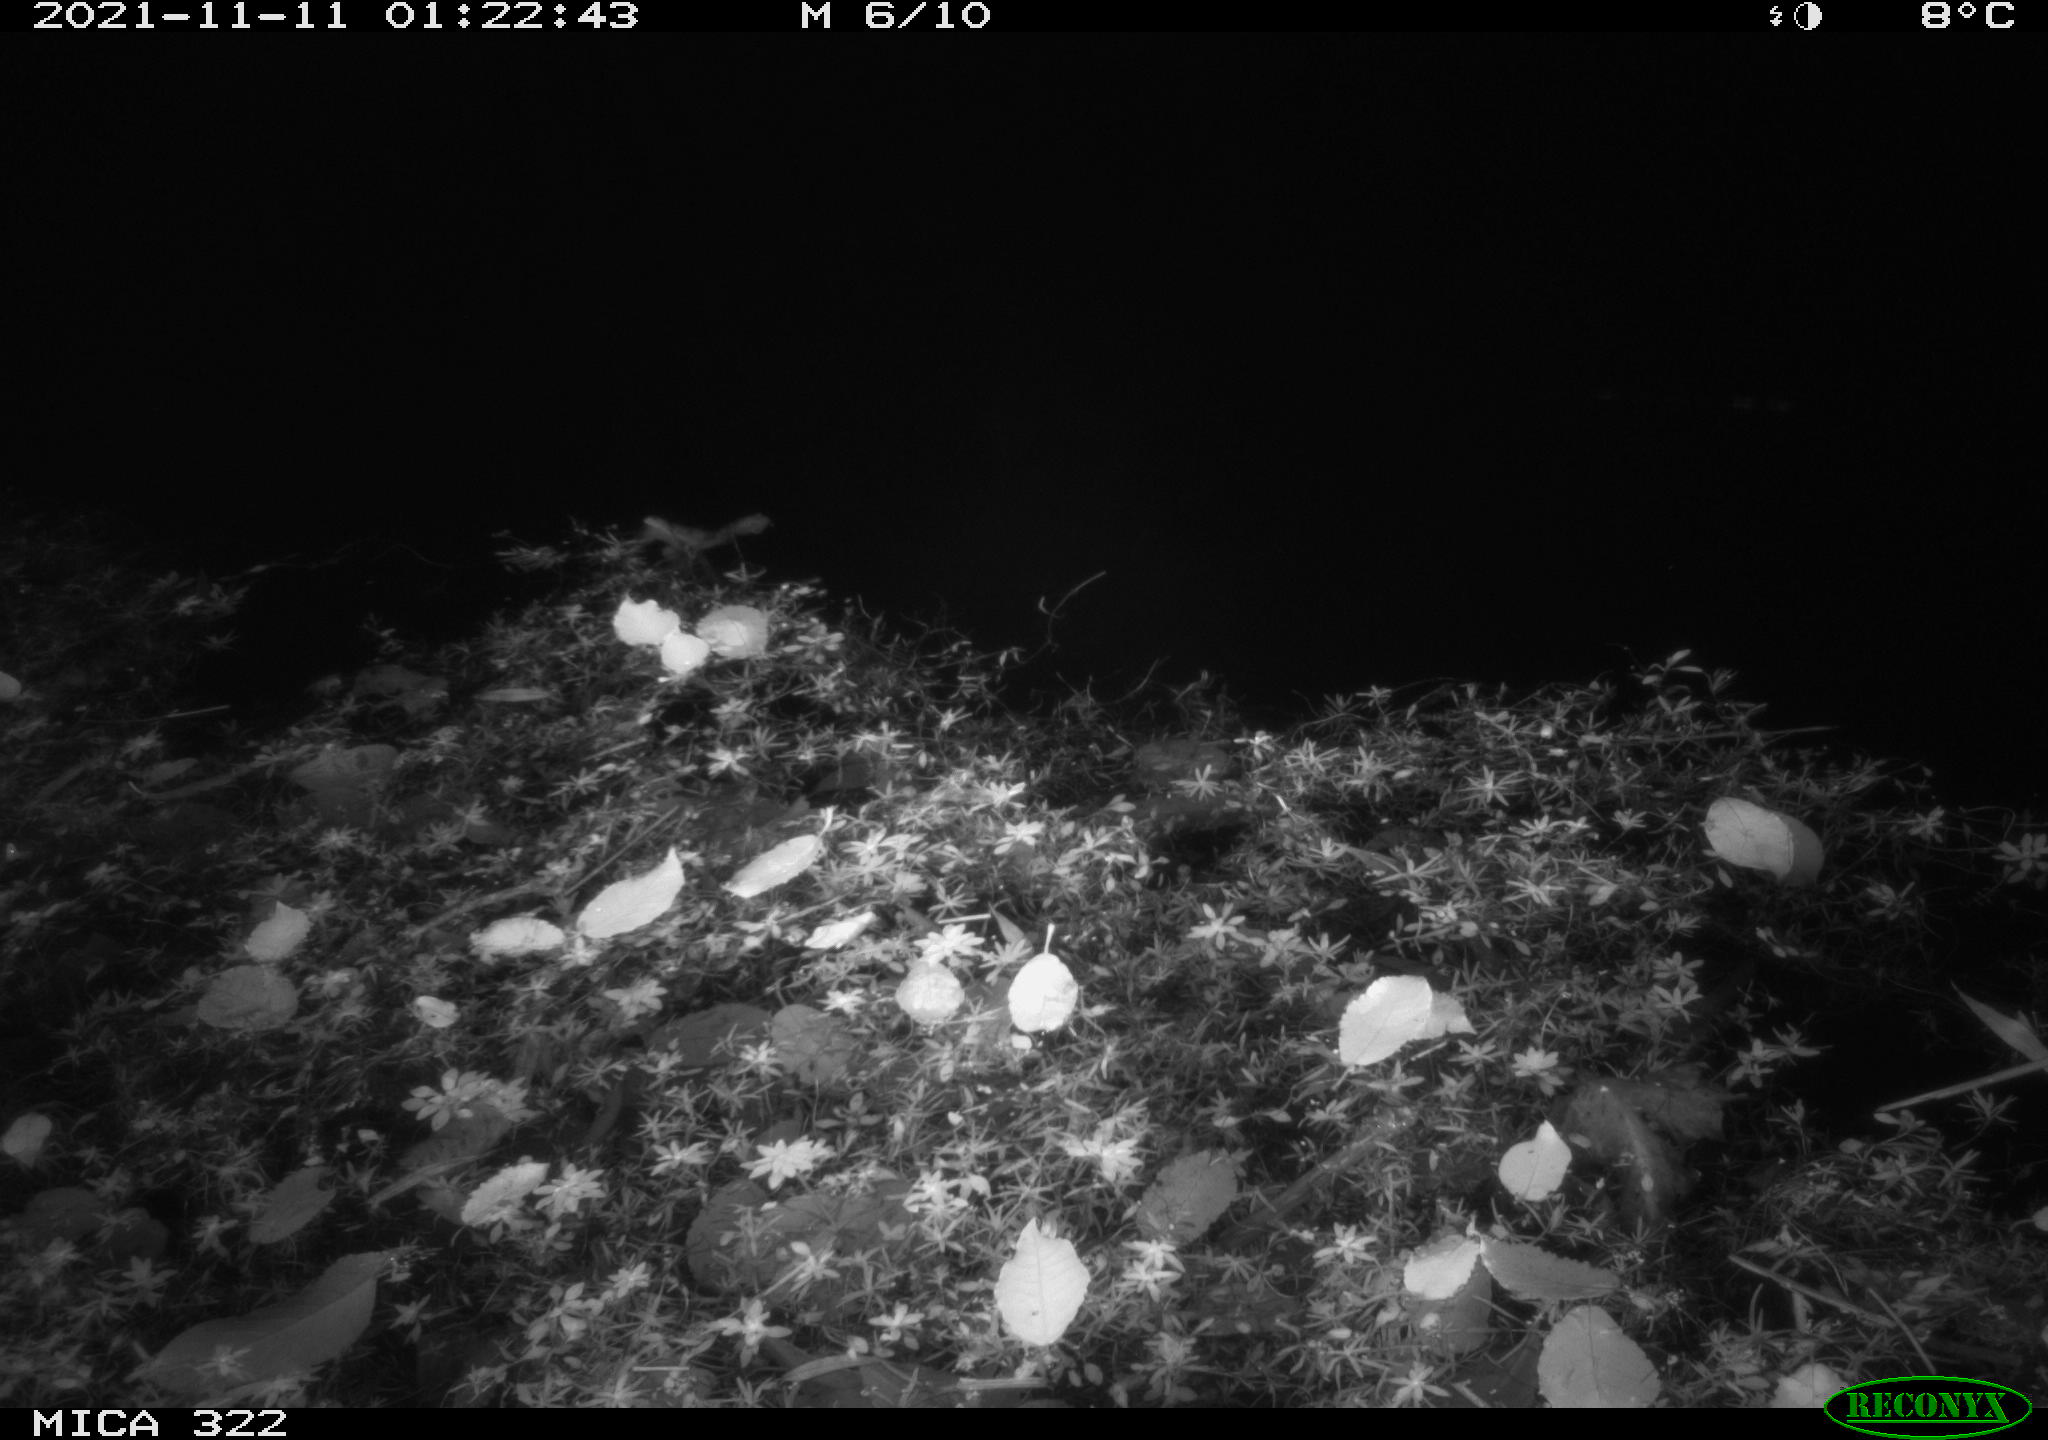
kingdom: Animalia
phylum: Chordata
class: Mammalia
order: Rodentia
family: Muridae
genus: Rattus
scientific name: Rattus norvegicus
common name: Brown rat
